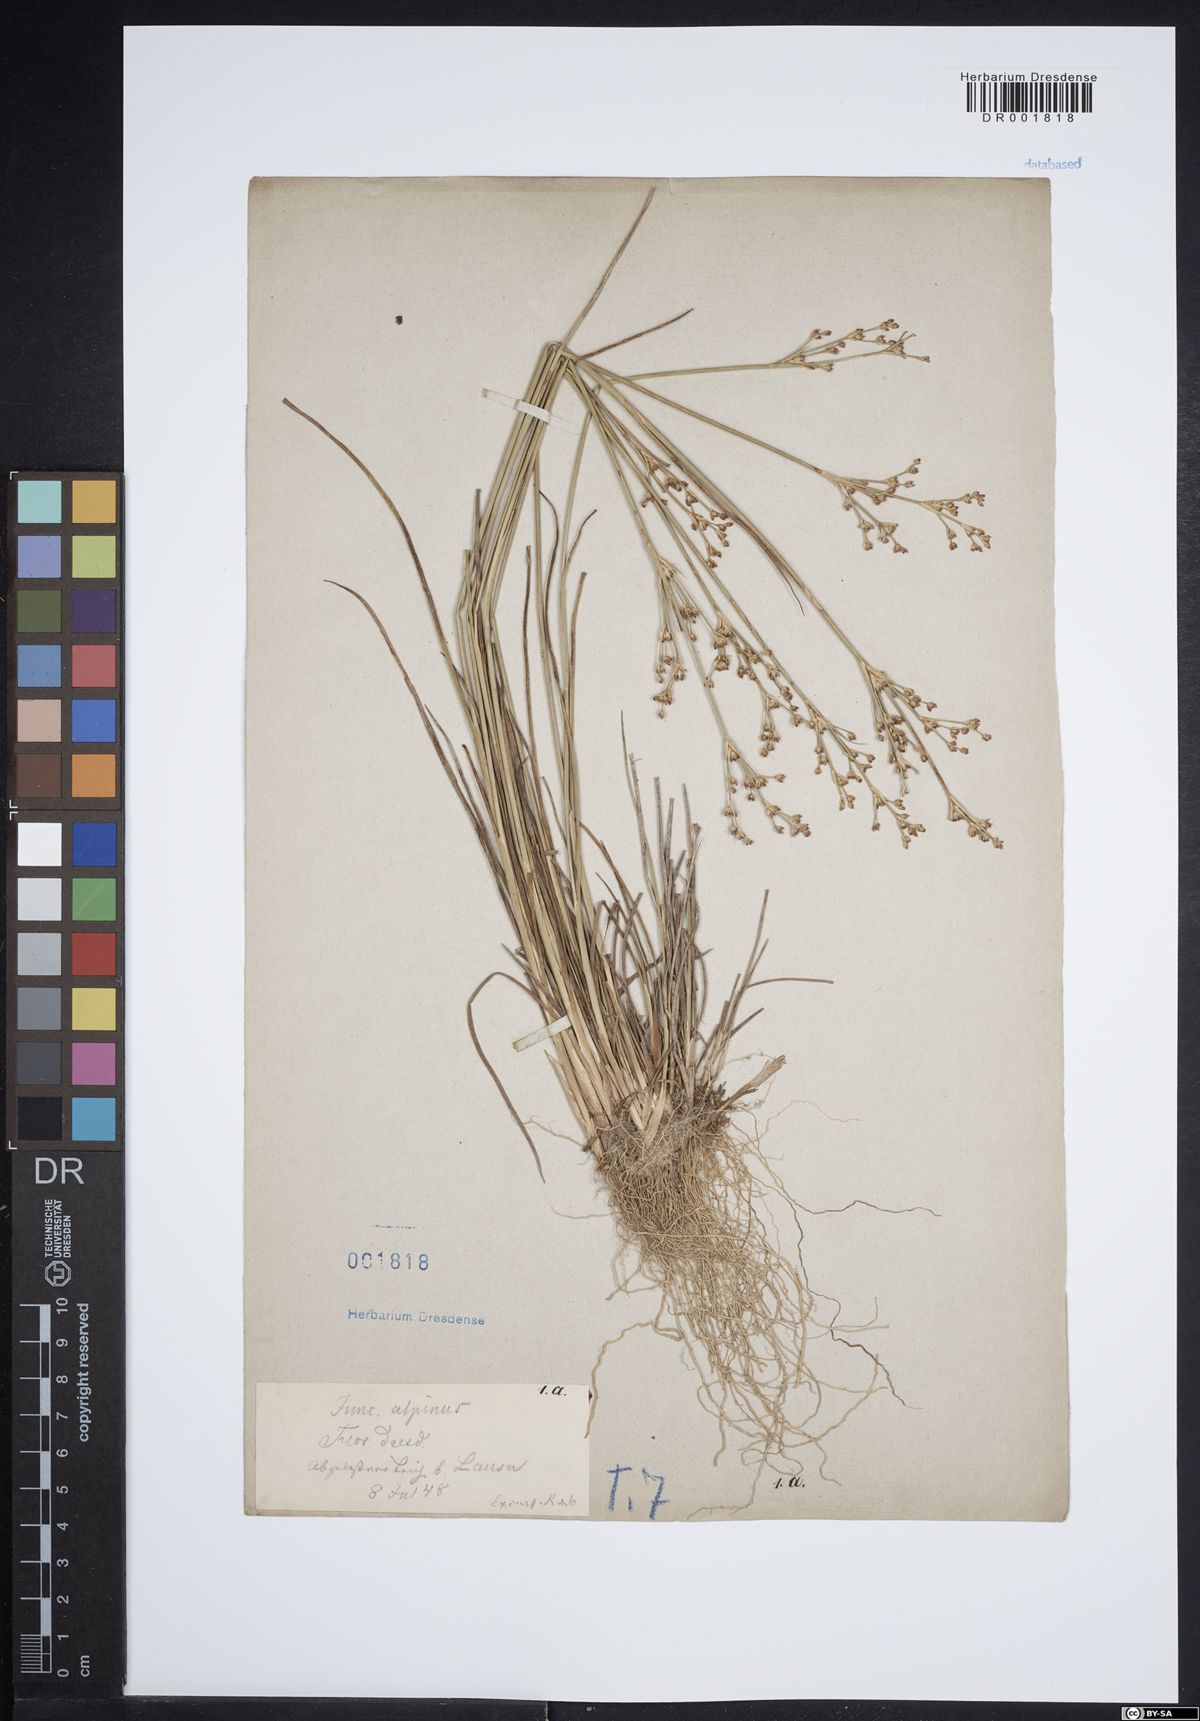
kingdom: Plantae
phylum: Tracheophyta
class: Liliopsida
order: Poales
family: Juncaceae
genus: Juncus
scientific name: Juncus alpinoarticulatus
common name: Alpine rush
